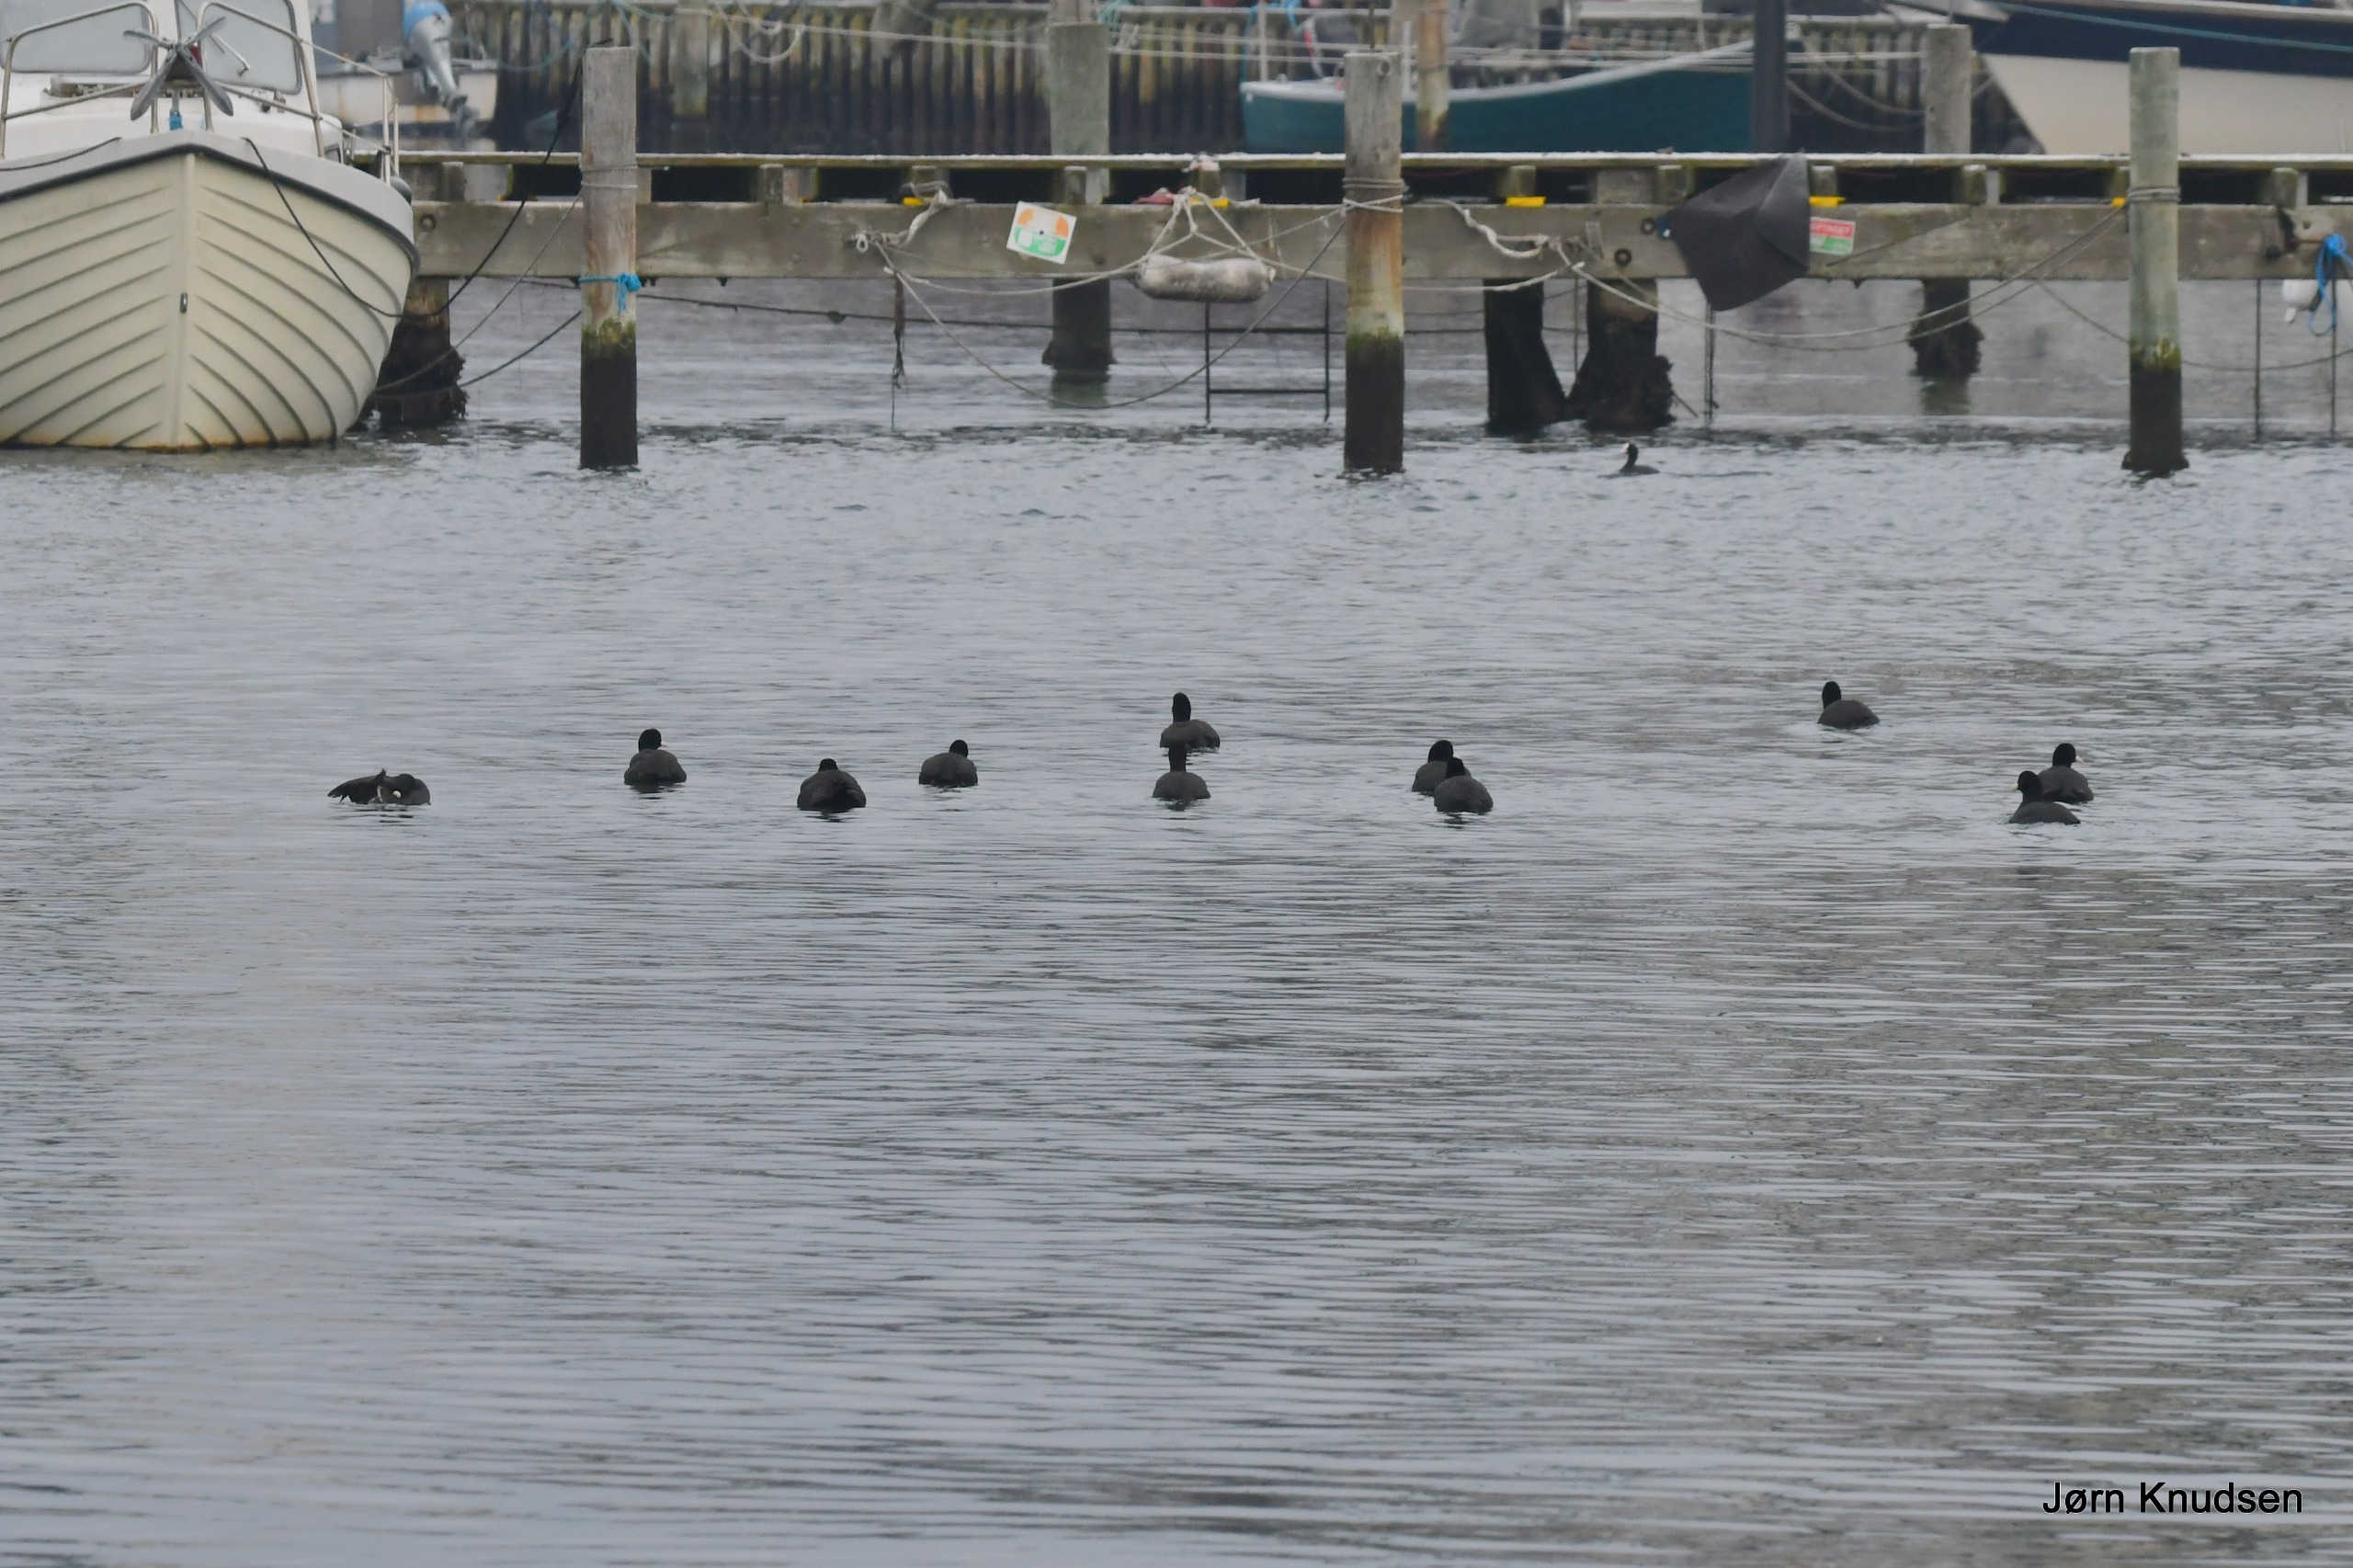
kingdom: Animalia
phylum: Chordata
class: Aves
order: Gruiformes
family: Rallidae
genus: Fulica
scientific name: Fulica atra
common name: Blishøne
